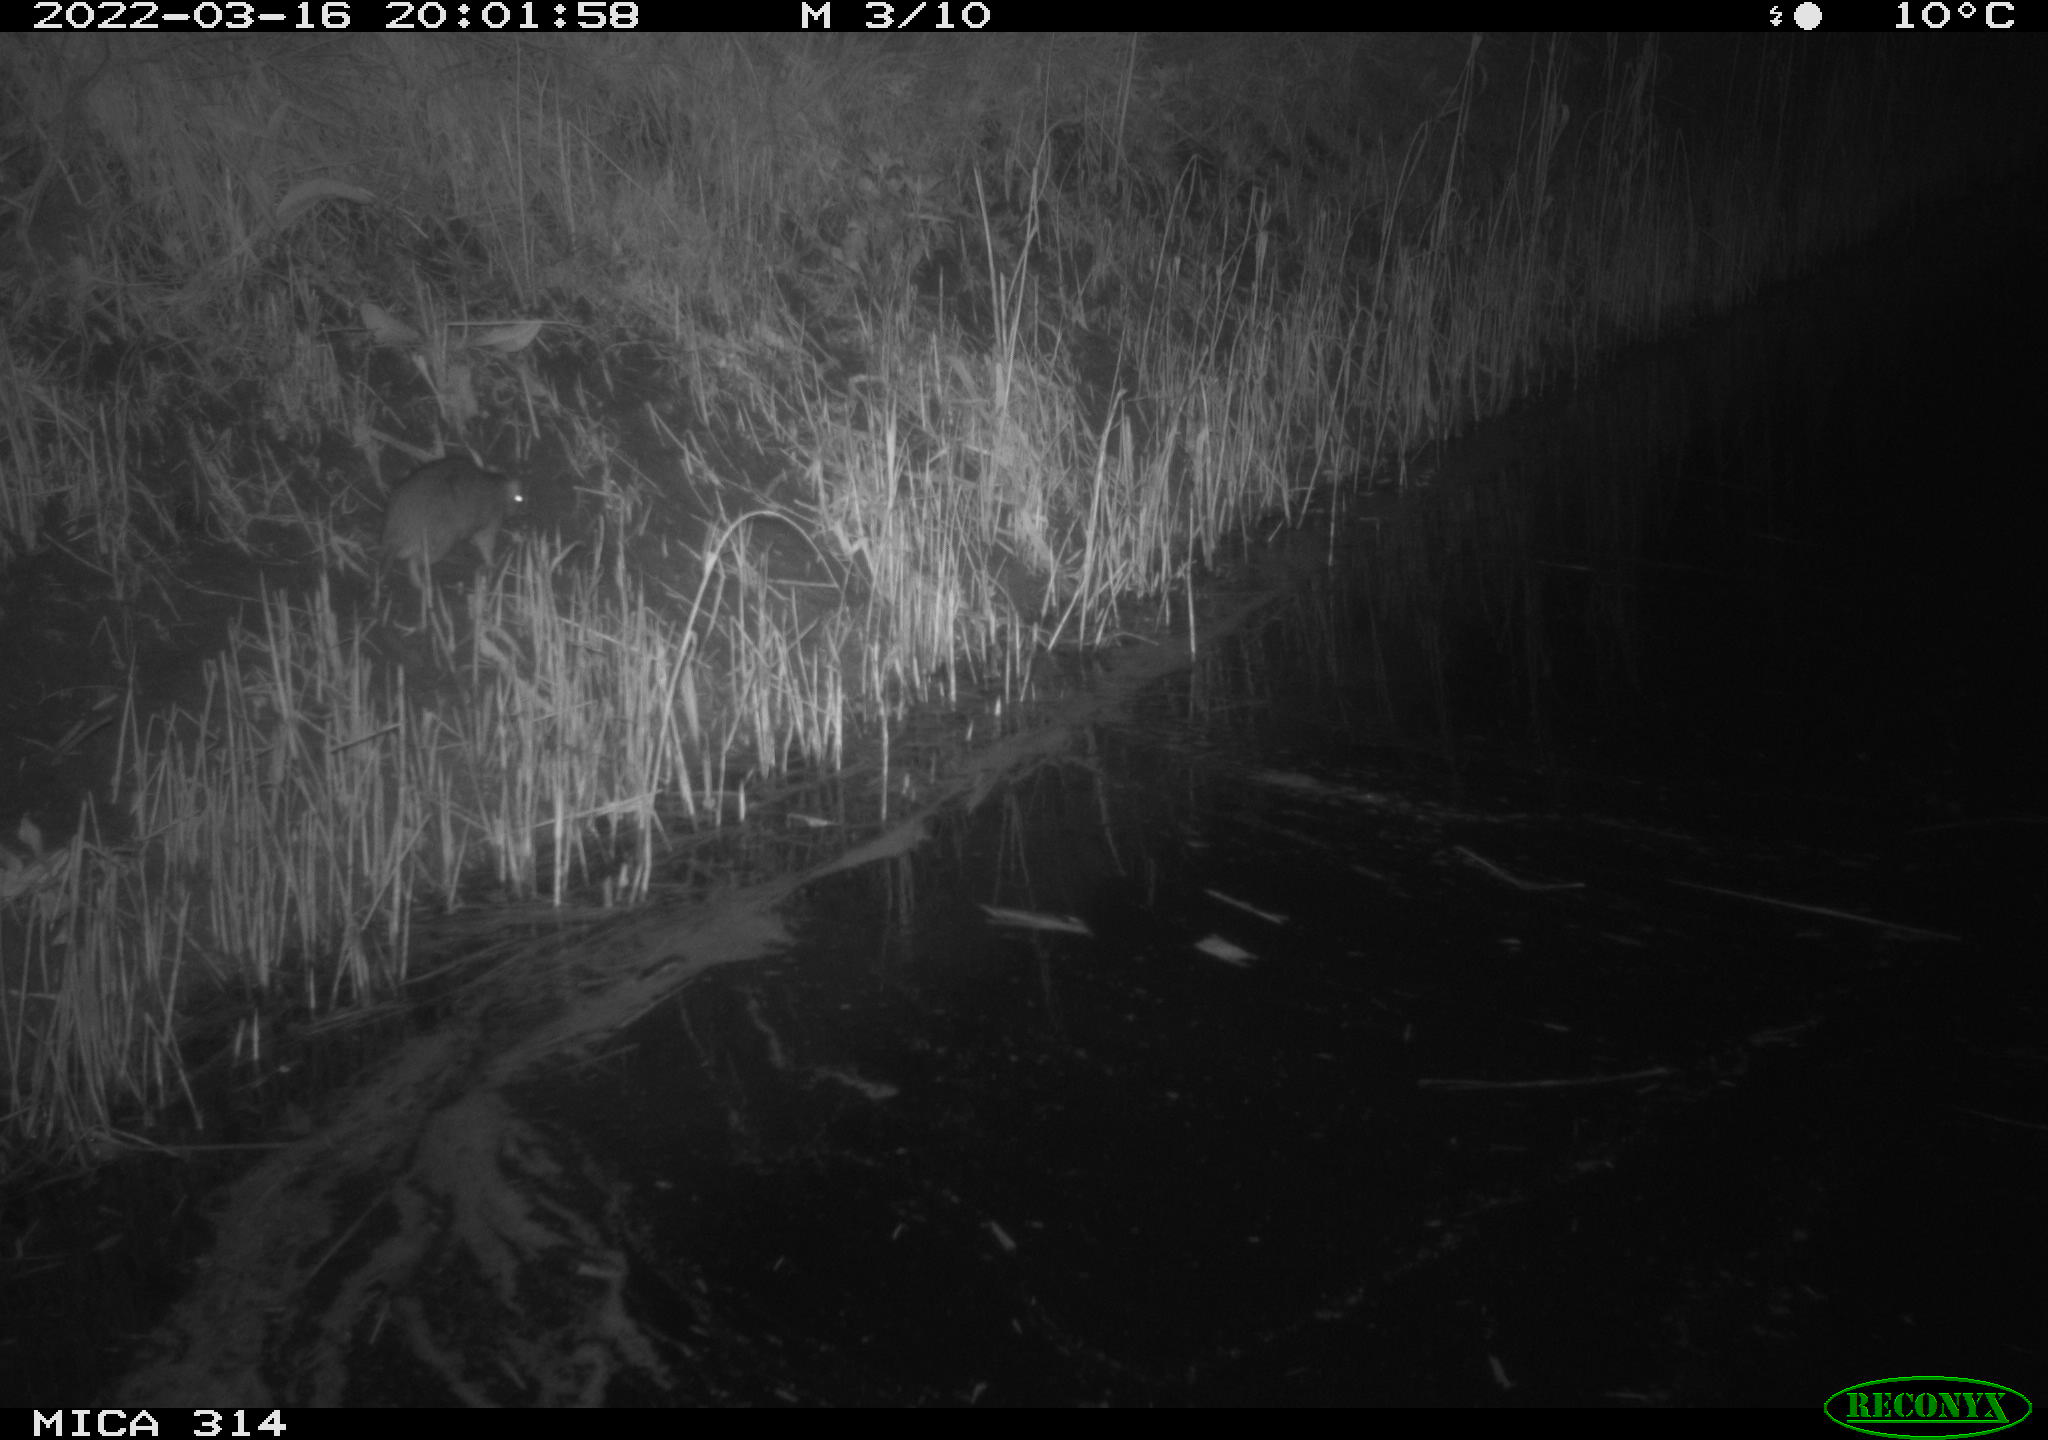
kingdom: Animalia
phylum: Chordata
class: Mammalia
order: Rodentia
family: Muridae
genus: Rattus
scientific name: Rattus norvegicus
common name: Brown rat
